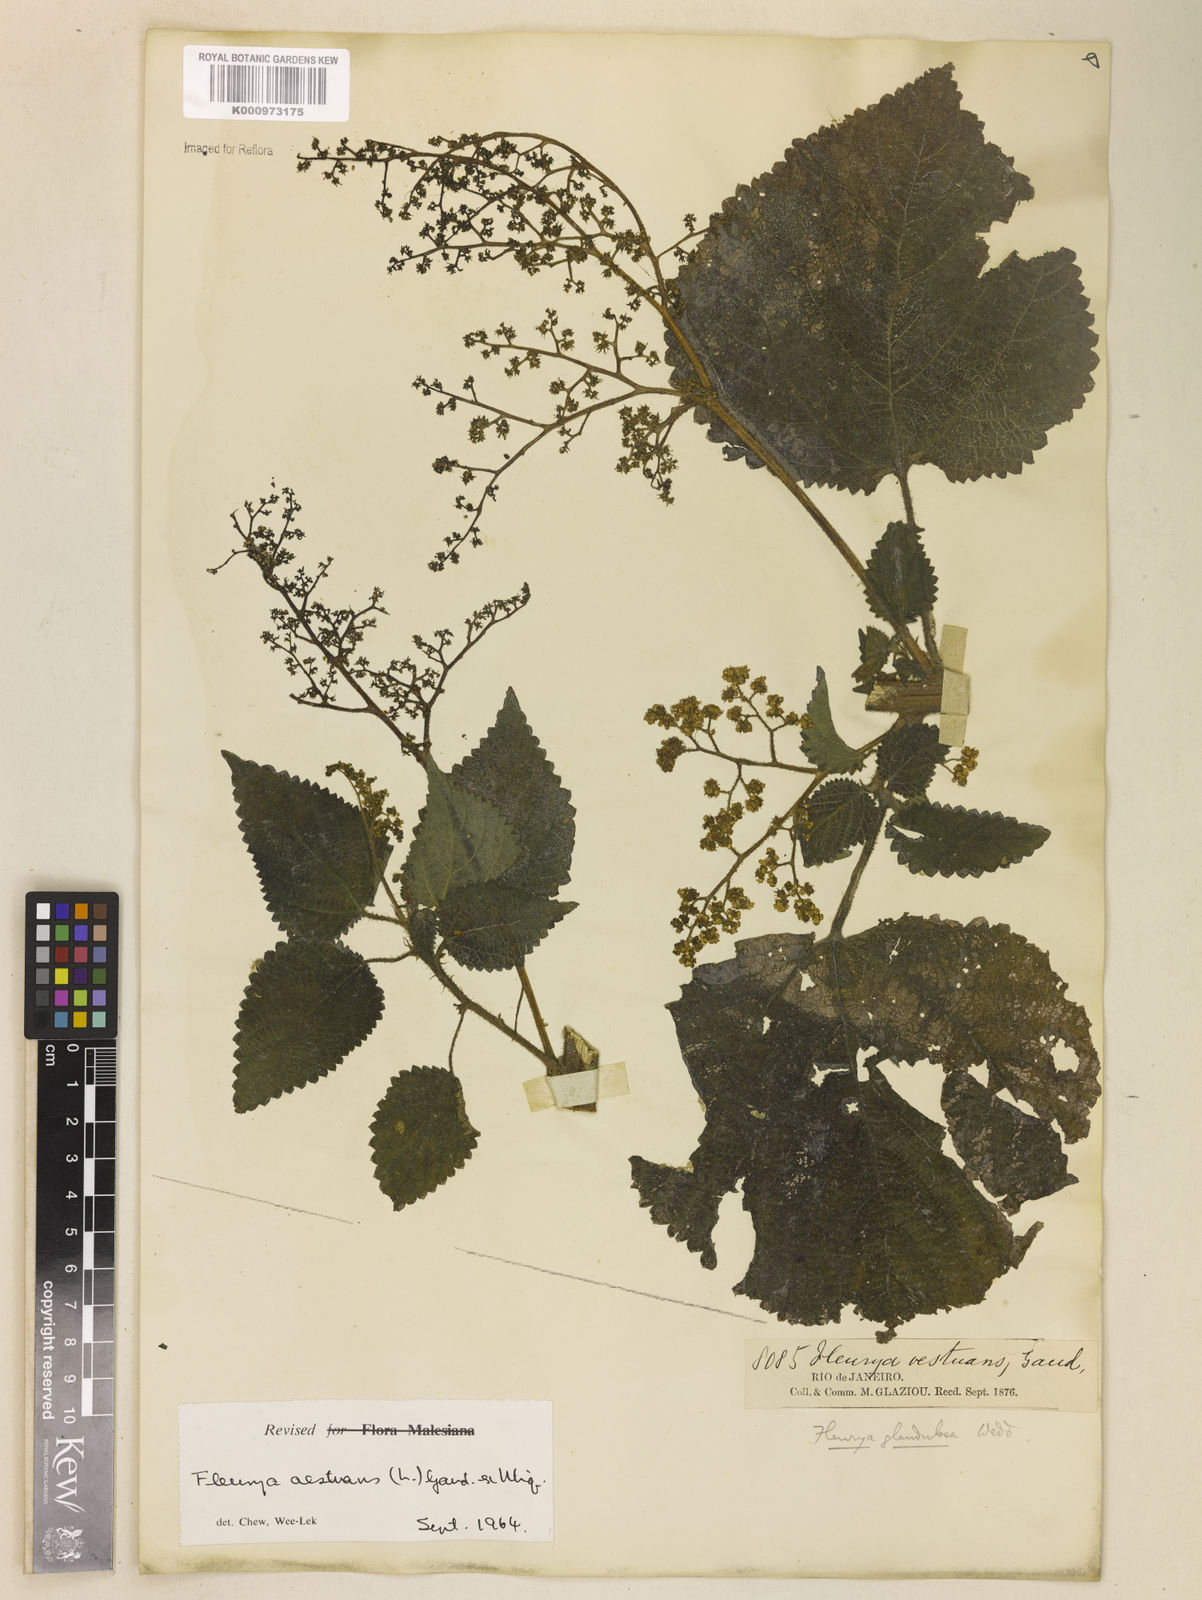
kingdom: Plantae
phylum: Tracheophyta
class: Magnoliopsida
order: Rosales
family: Urticaceae
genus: Laportea
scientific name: Laportea aestuans
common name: West indian woodnettle
